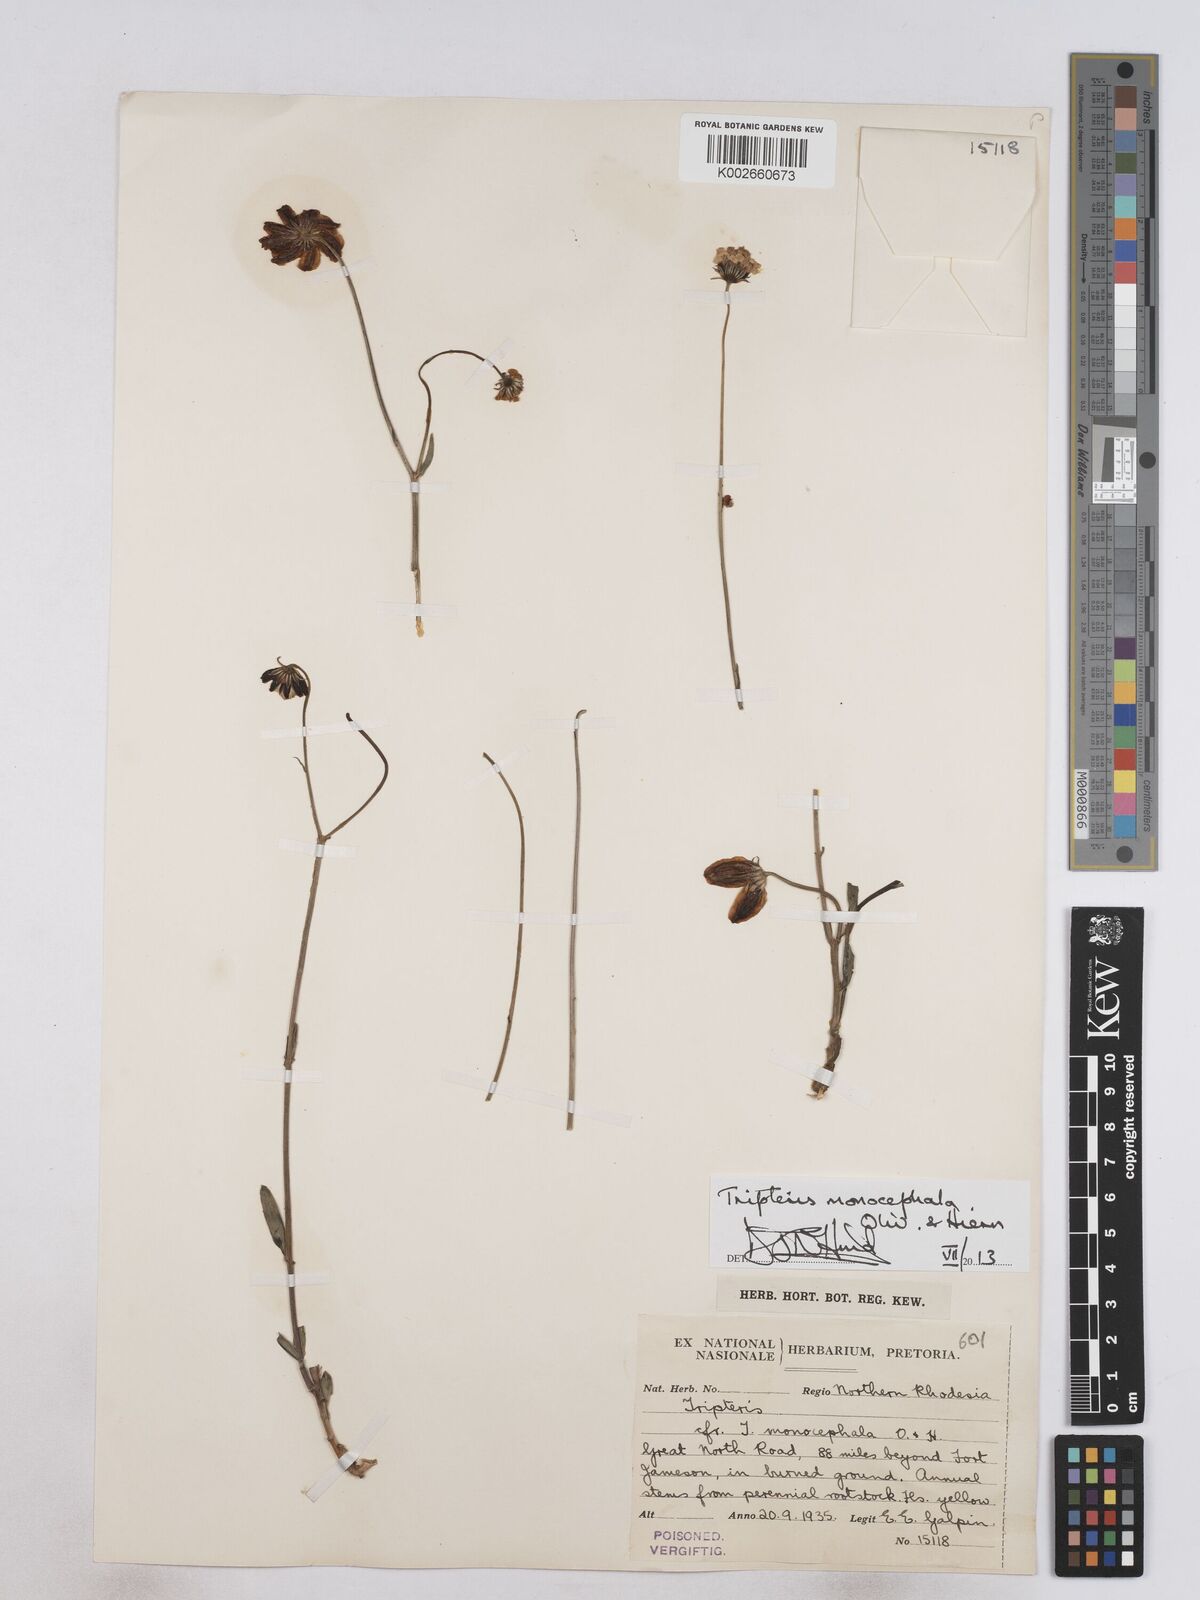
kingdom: Plantae
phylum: Tracheophyta
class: Magnoliopsida
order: Asterales
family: Asteraceae
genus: Osteospermum
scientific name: Osteospermum monocephalum
